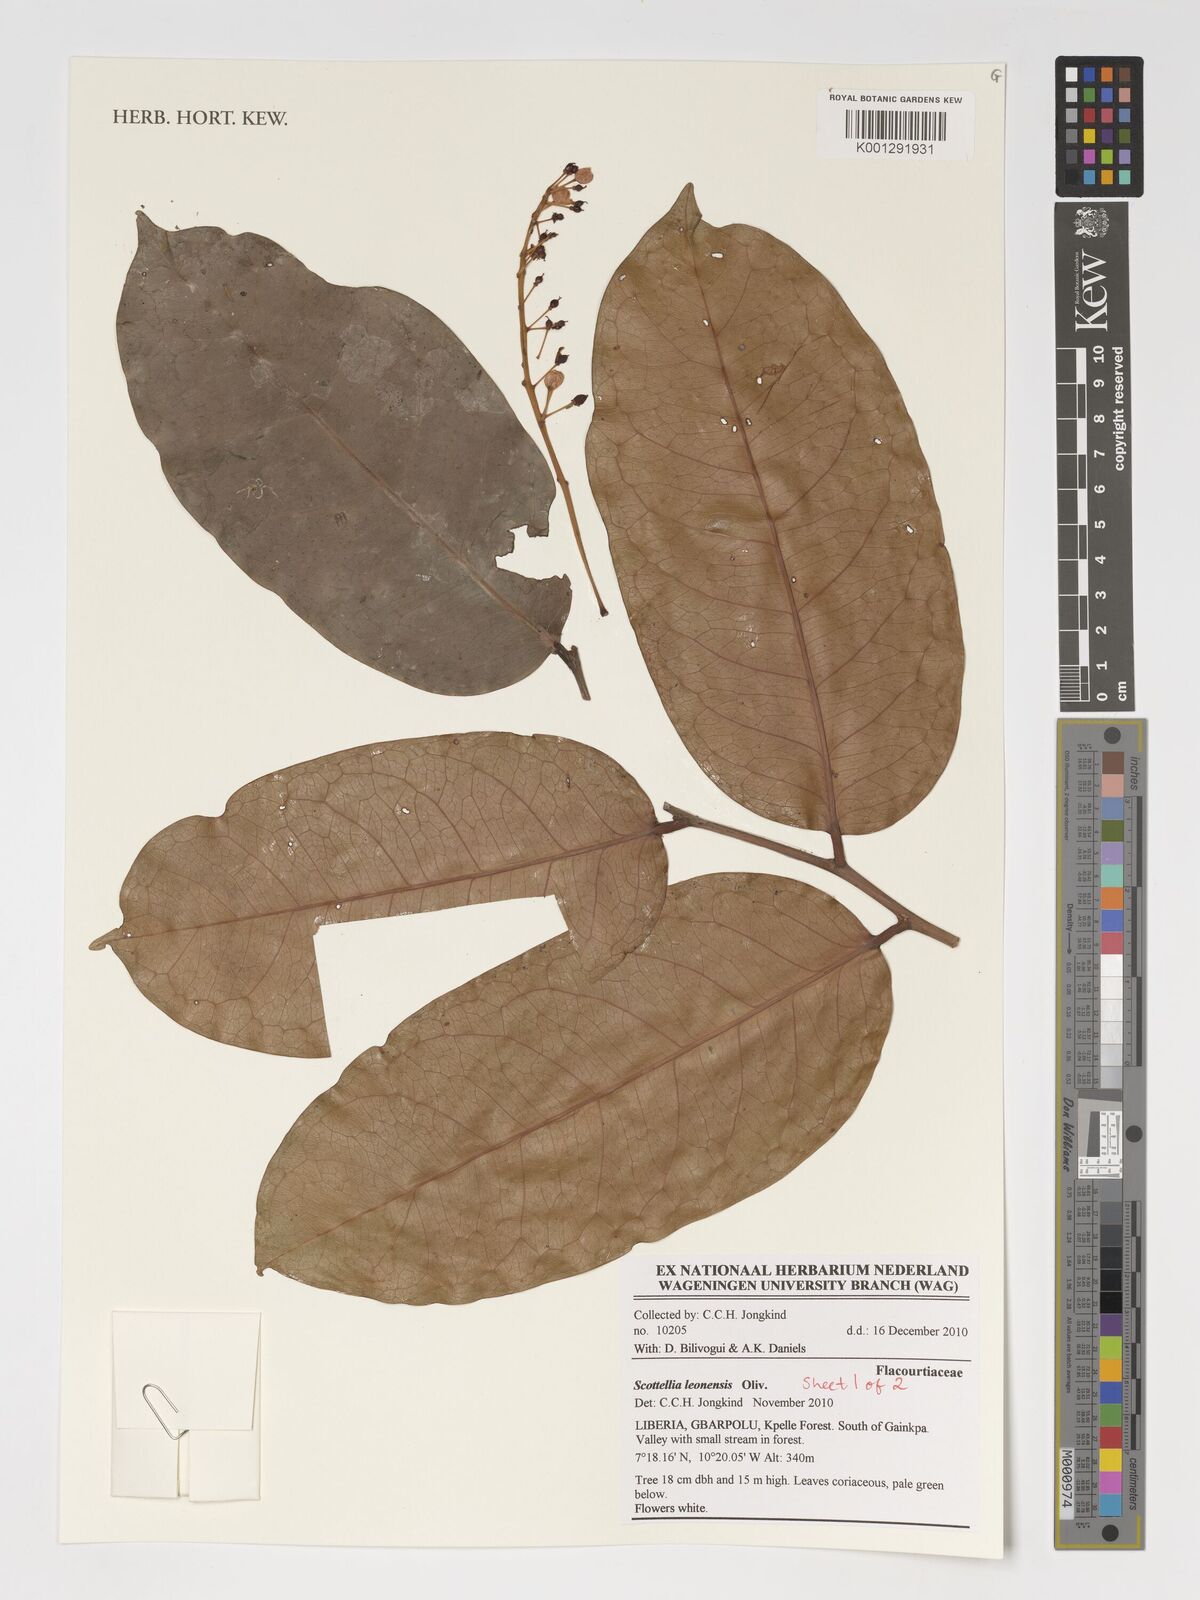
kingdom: Plantae
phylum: Tracheophyta
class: Magnoliopsida
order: Malpighiales
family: Achariaceae
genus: Scottellia
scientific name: Scottellia leonensis
